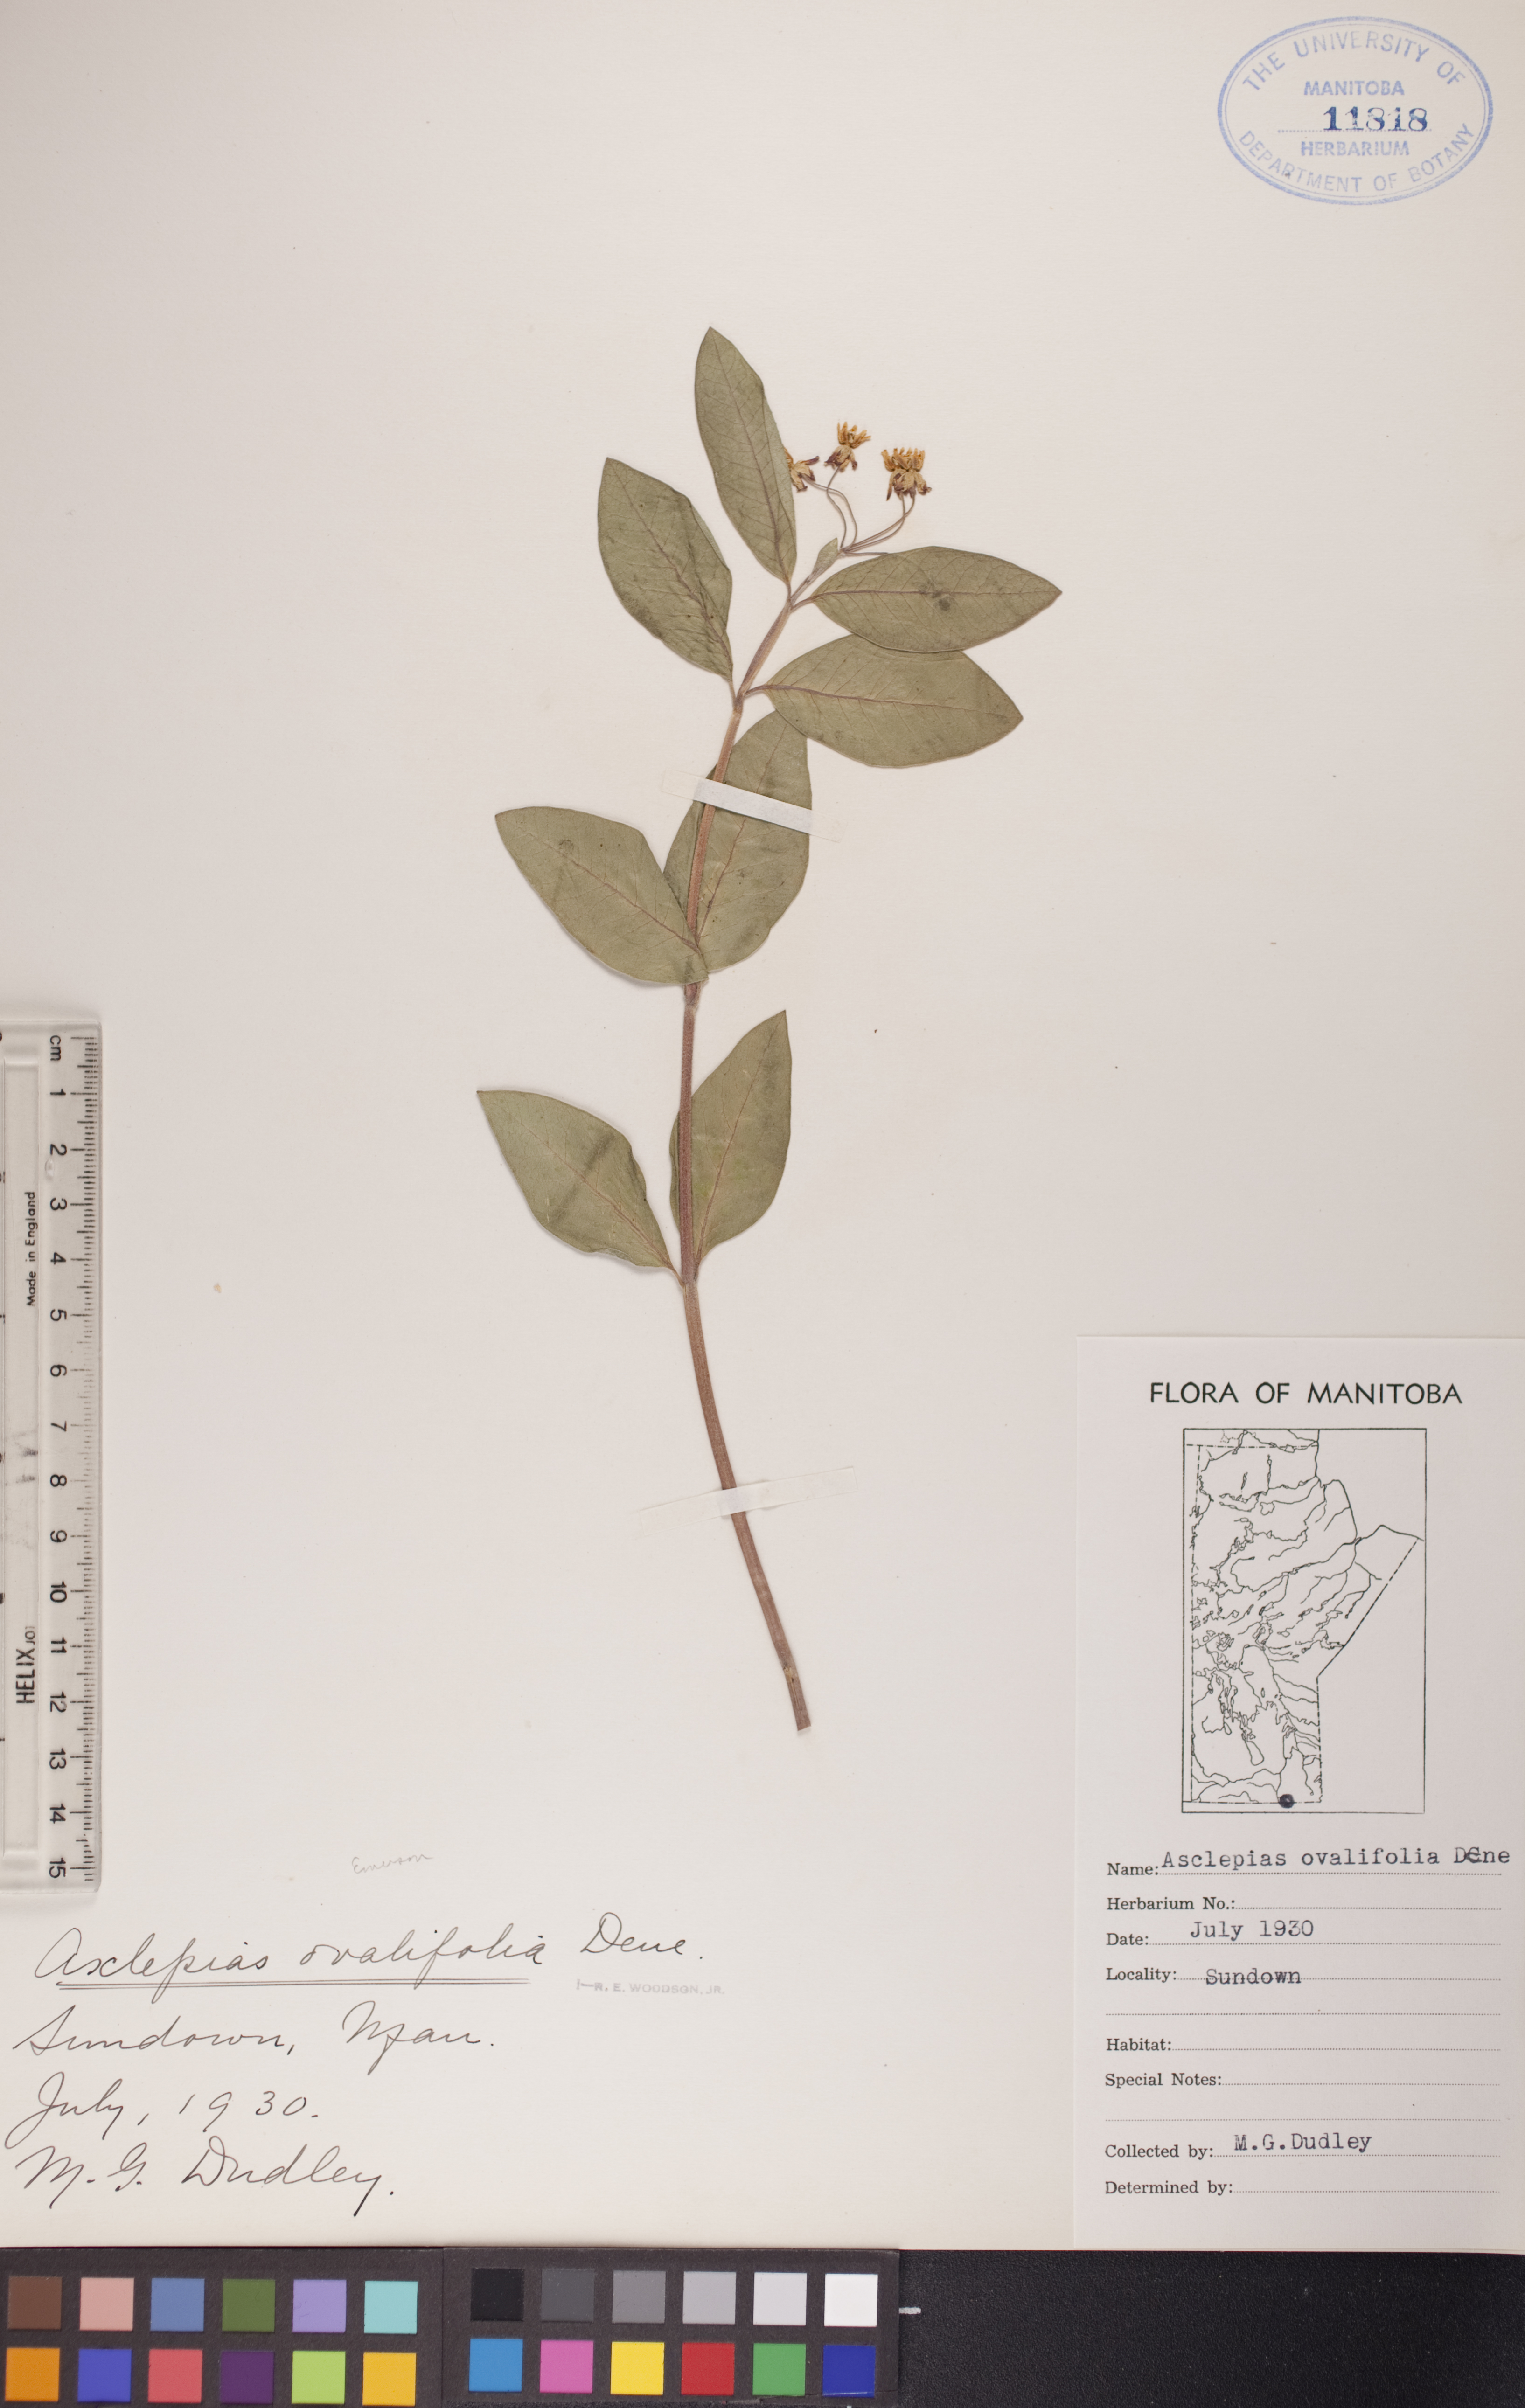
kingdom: Plantae
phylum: Tracheophyta
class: Magnoliopsida
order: Gentianales
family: Apocynaceae
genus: Asclepias
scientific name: Asclepias ovalifolia
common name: Dwarf milkweed
